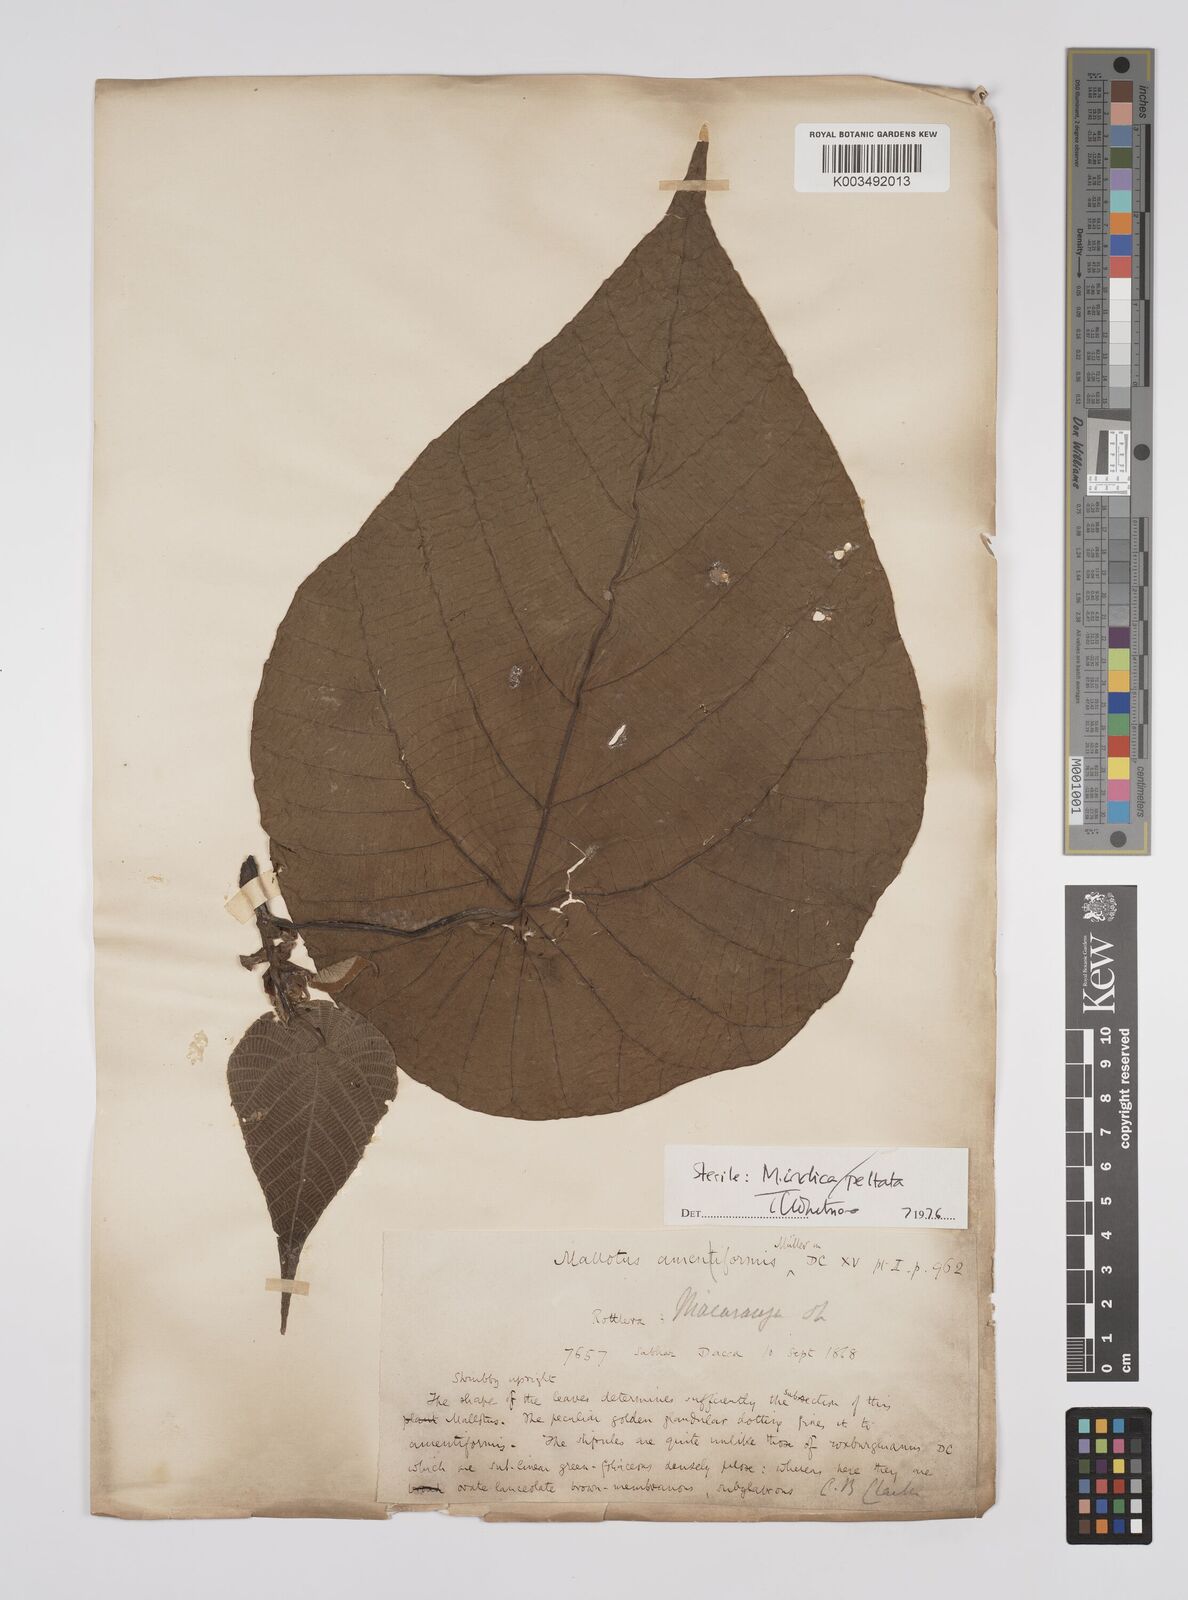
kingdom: Plantae
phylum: Tracheophyta
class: Magnoliopsida
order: Malpighiales
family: Euphorbiaceae
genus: Macaranga
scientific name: Macaranga indica
